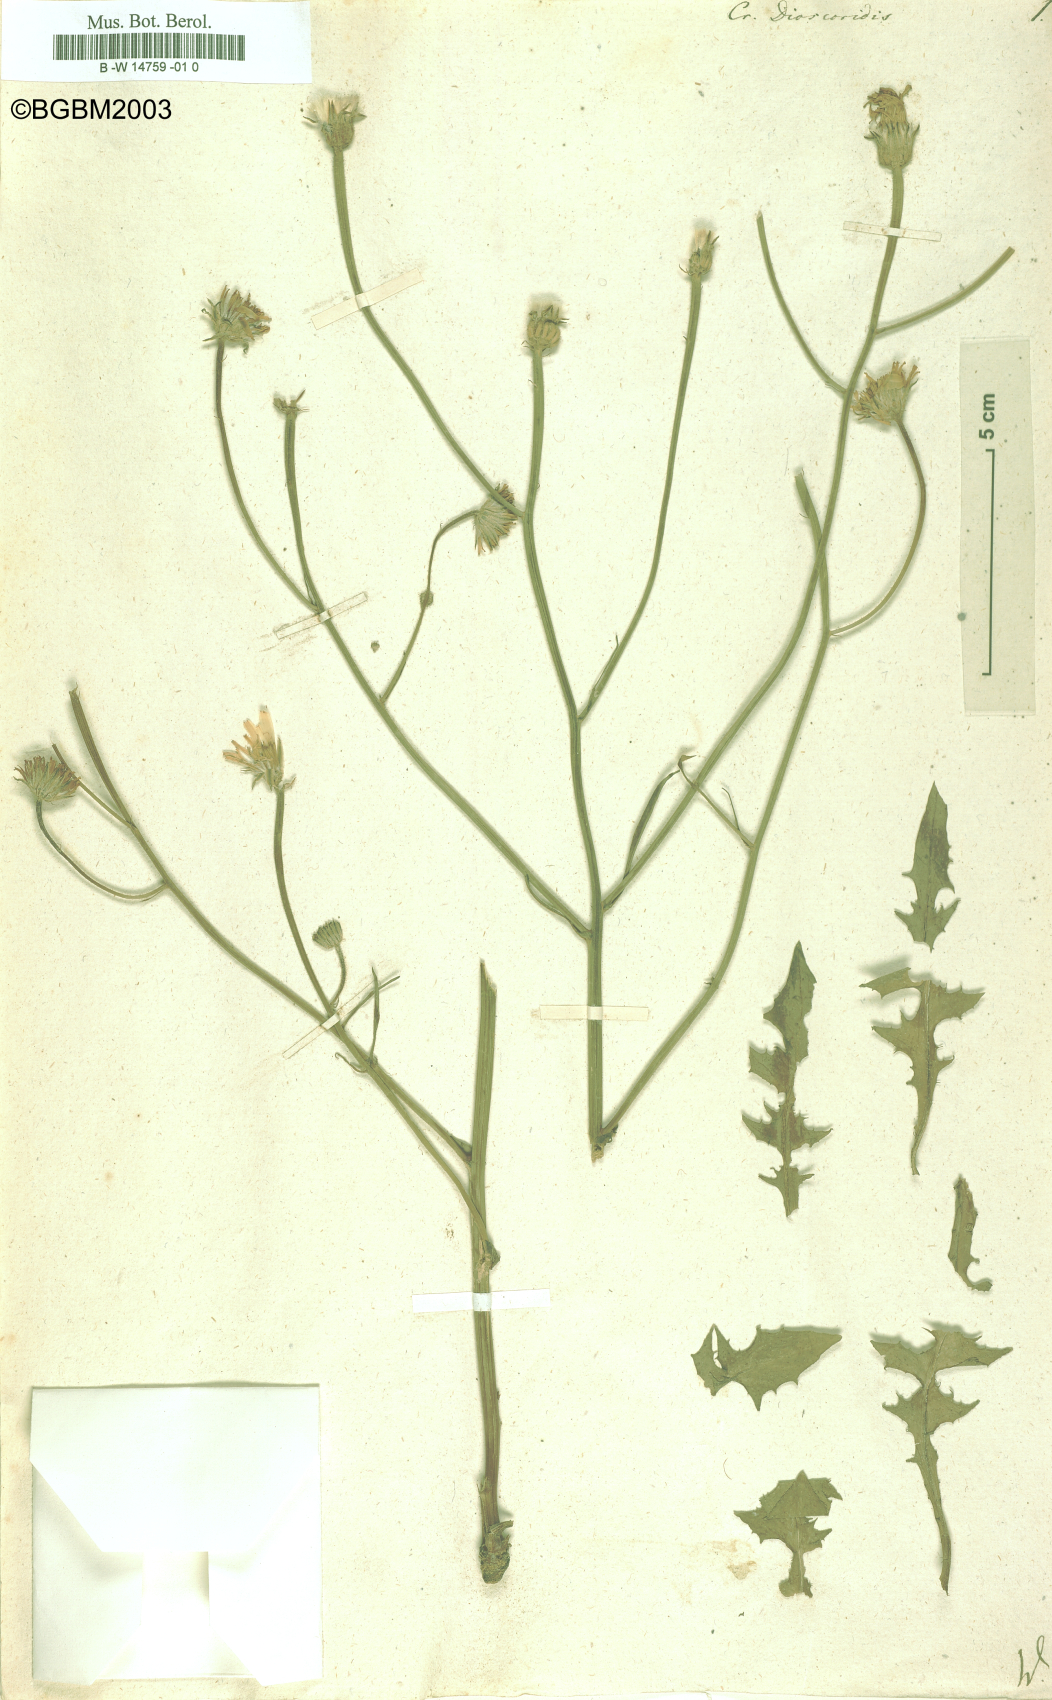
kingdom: Plantae
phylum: Tracheophyta
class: Magnoliopsida
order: Asterales
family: Asteraceae
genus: Crepis
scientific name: Crepis dioscoridis
